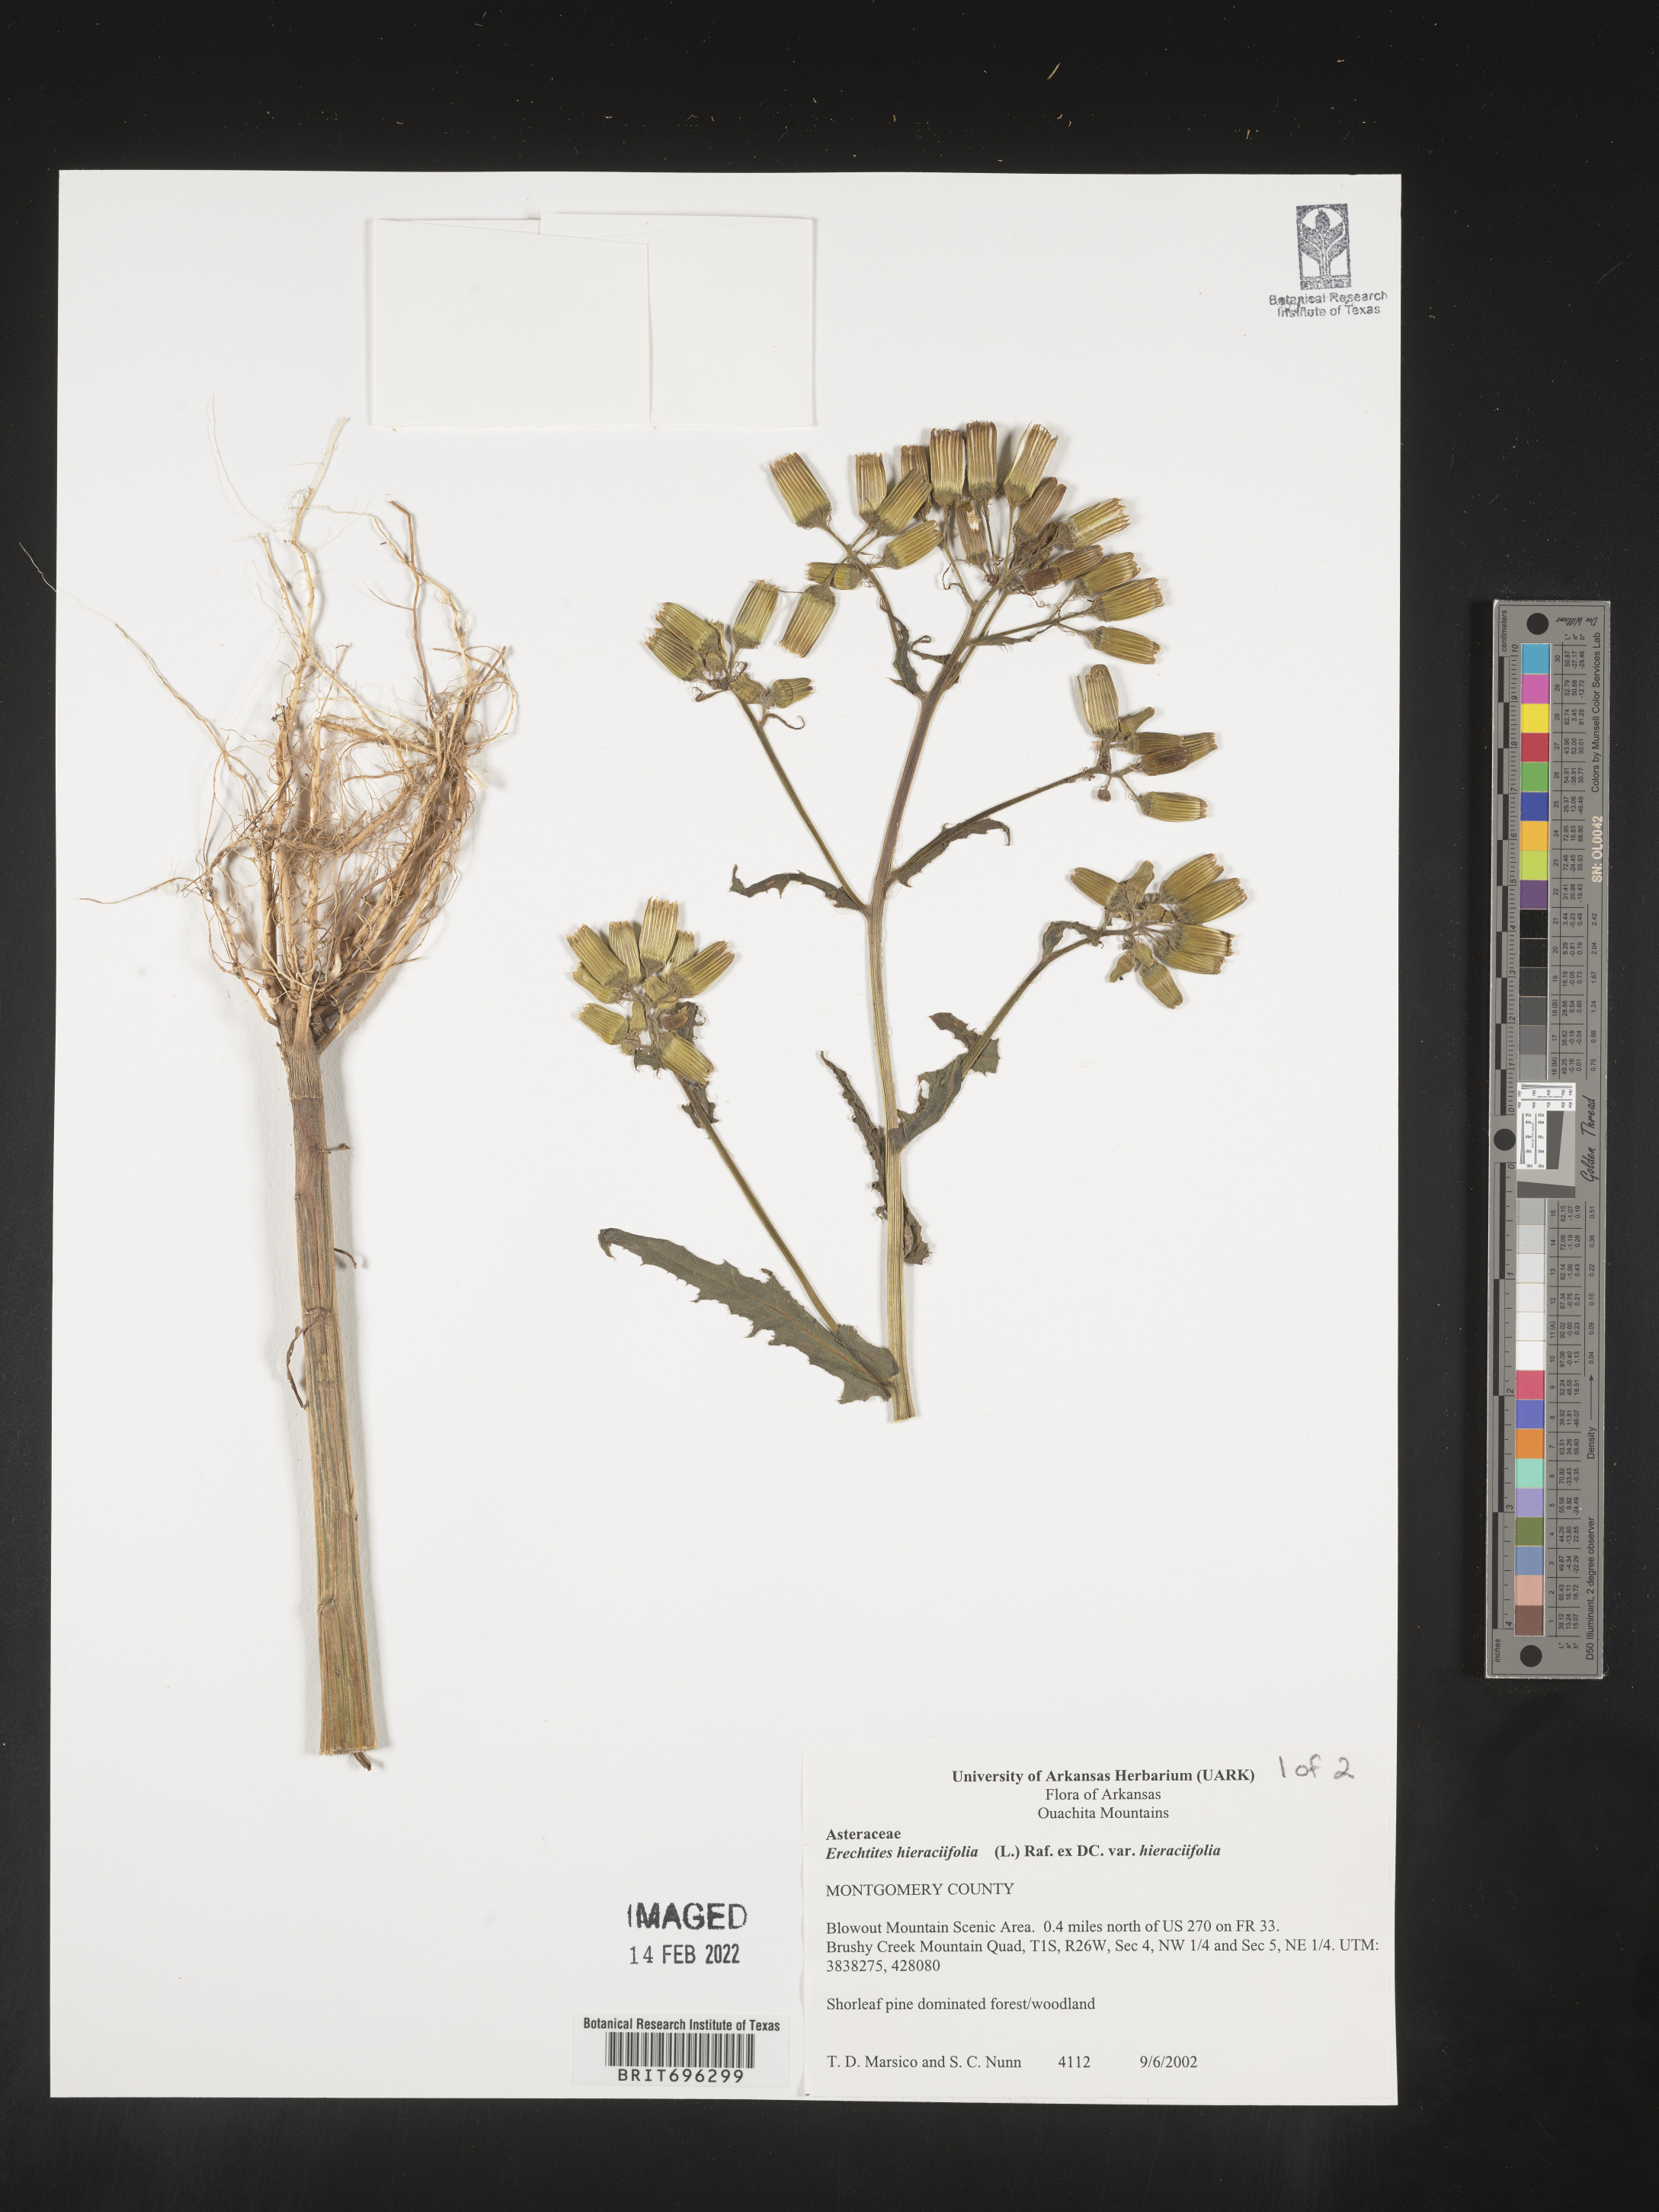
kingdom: Plantae
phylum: Tracheophyta
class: Magnoliopsida
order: Asterales
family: Asteraceae
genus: Erechtites
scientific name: Erechtites hieraciifolius
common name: American burnweed
